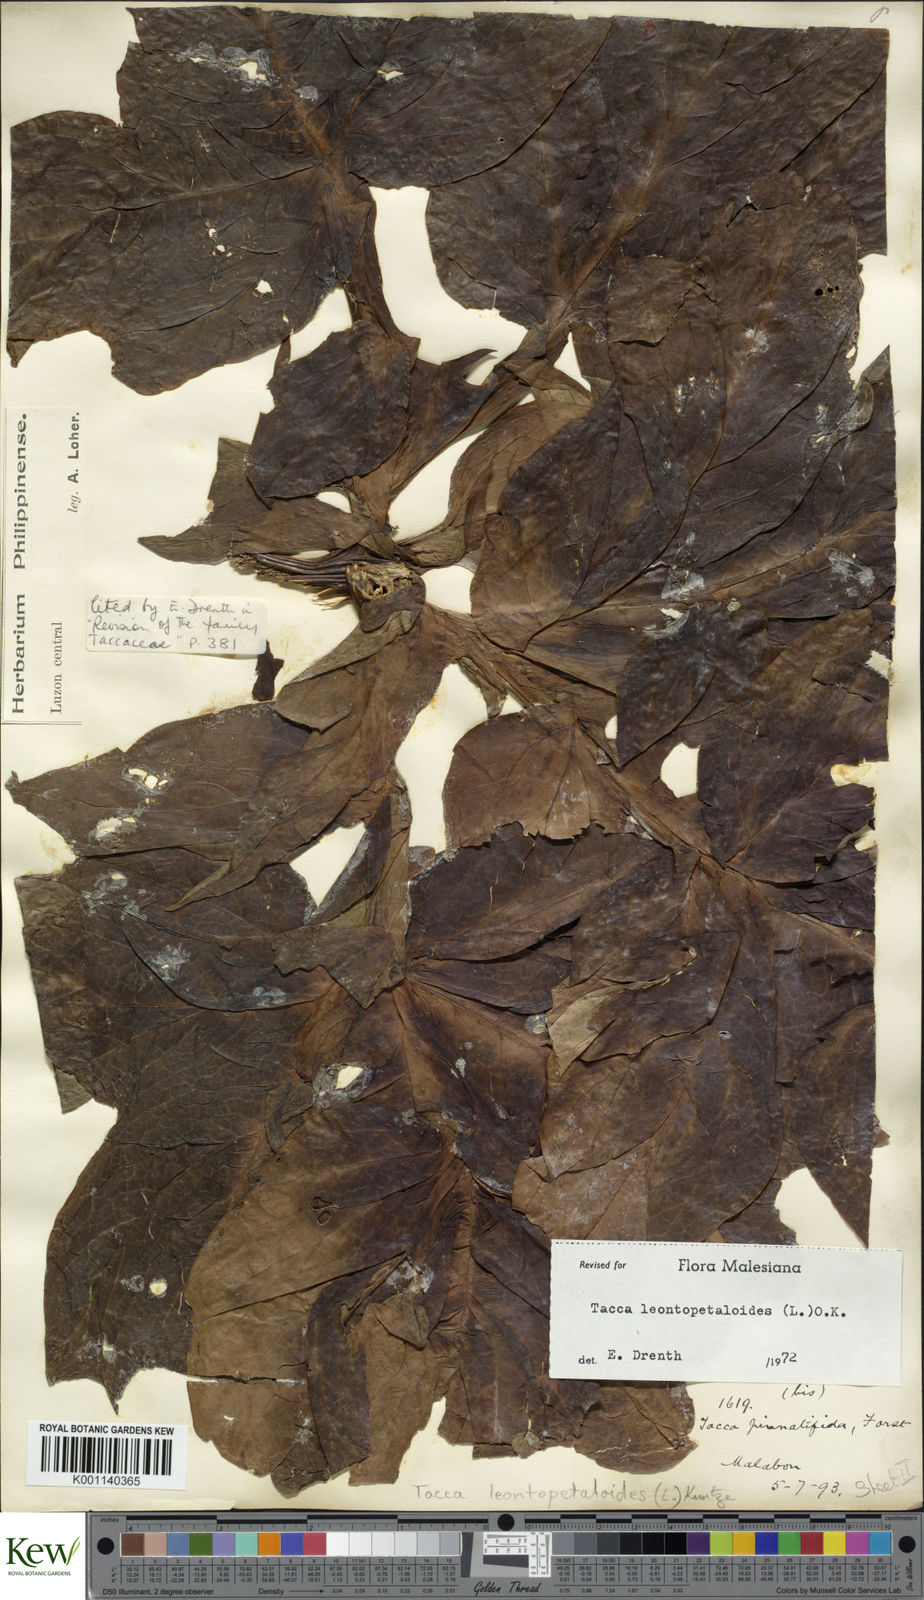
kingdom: Plantae
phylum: Tracheophyta
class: Liliopsida
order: Dioscoreales
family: Dioscoreaceae
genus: Tacca
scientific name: Tacca leontopetaloides
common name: Arrowroot
